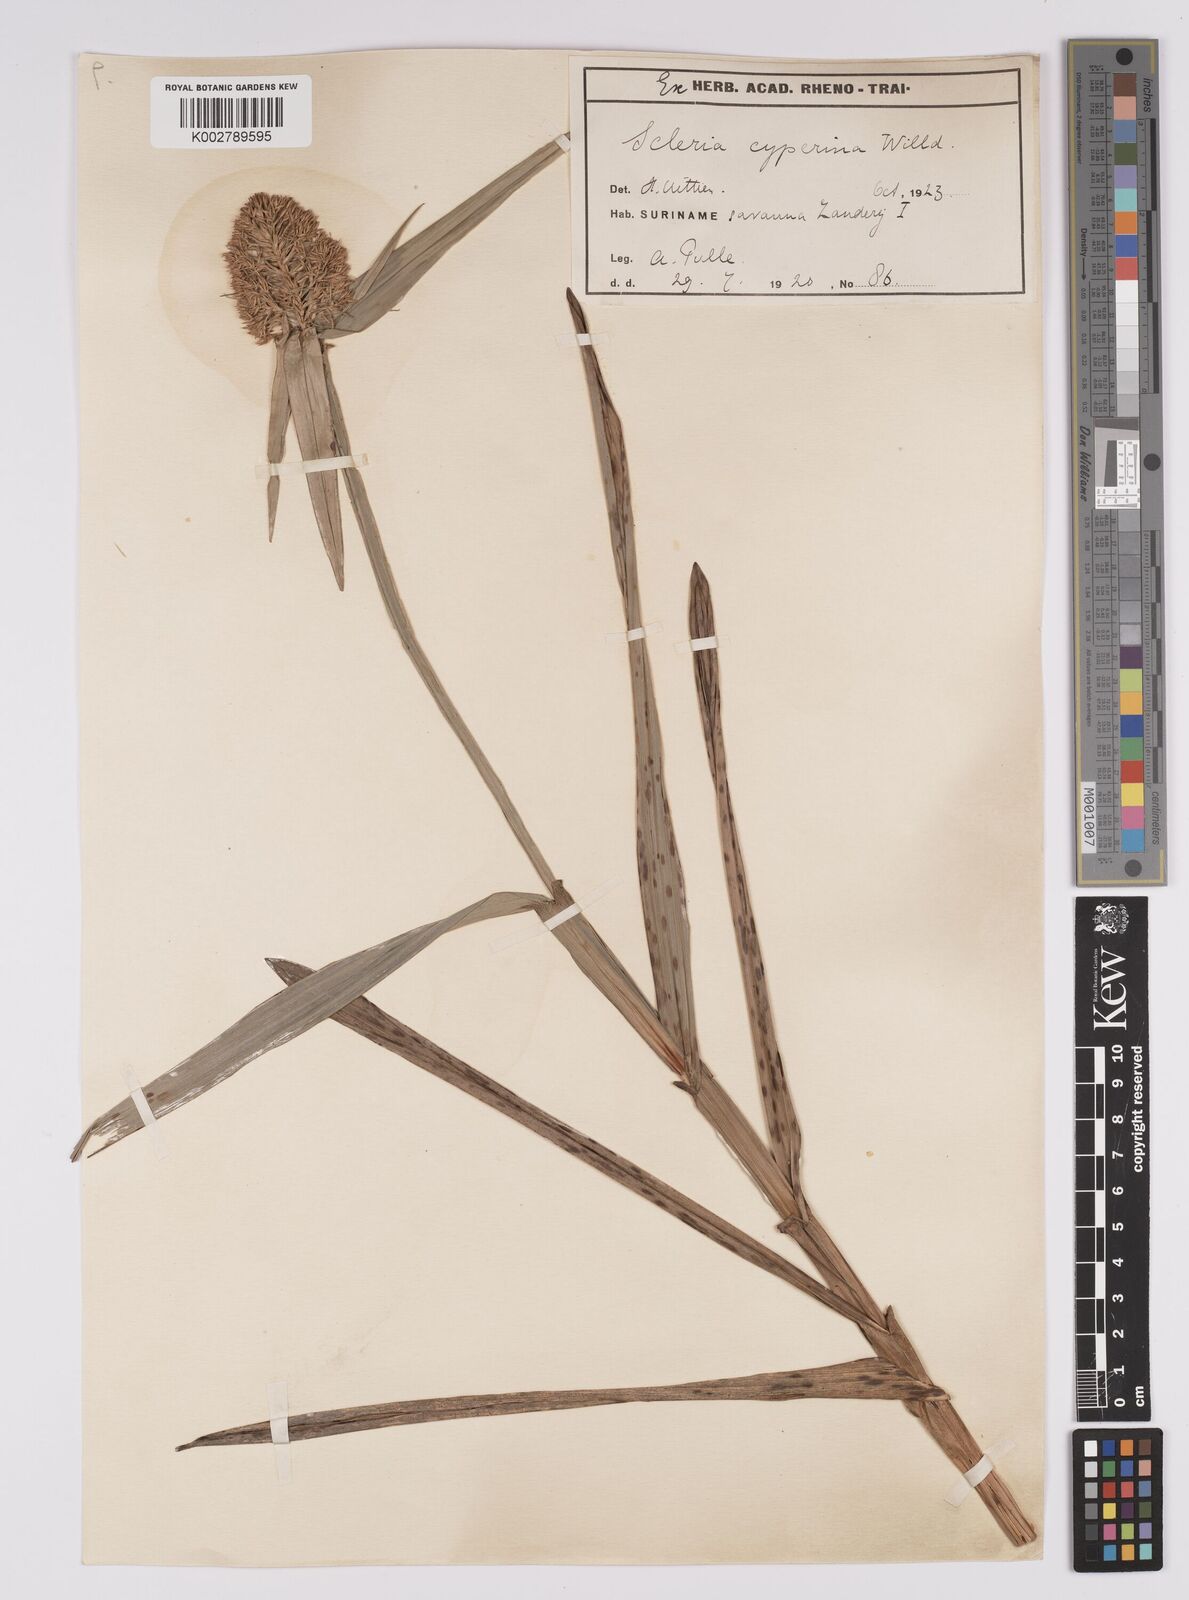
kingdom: Plantae
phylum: Tracheophyta
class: Liliopsida
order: Poales
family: Cyperaceae
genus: Scleria
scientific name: Scleria cyperina
